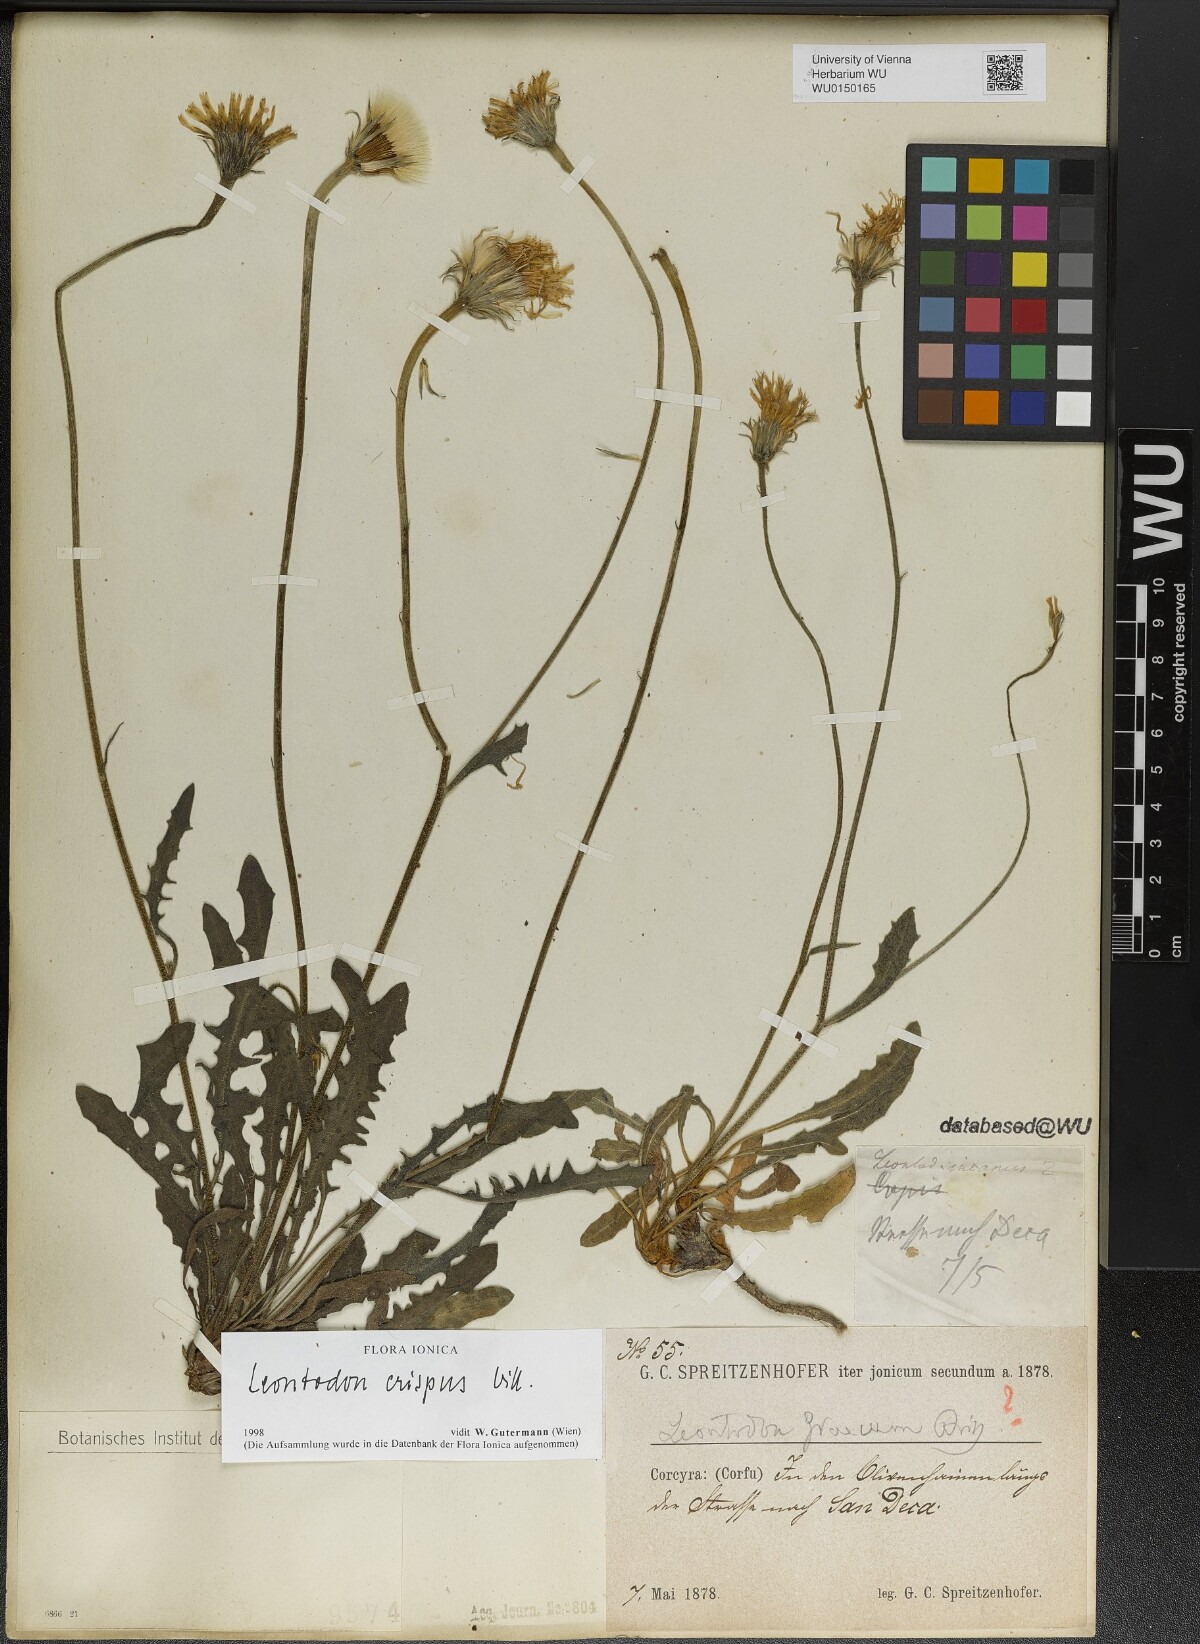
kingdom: Plantae
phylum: Tracheophyta
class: Magnoliopsida
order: Asterales
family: Asteraceae
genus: Leontodon
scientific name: Leontodon crispus
